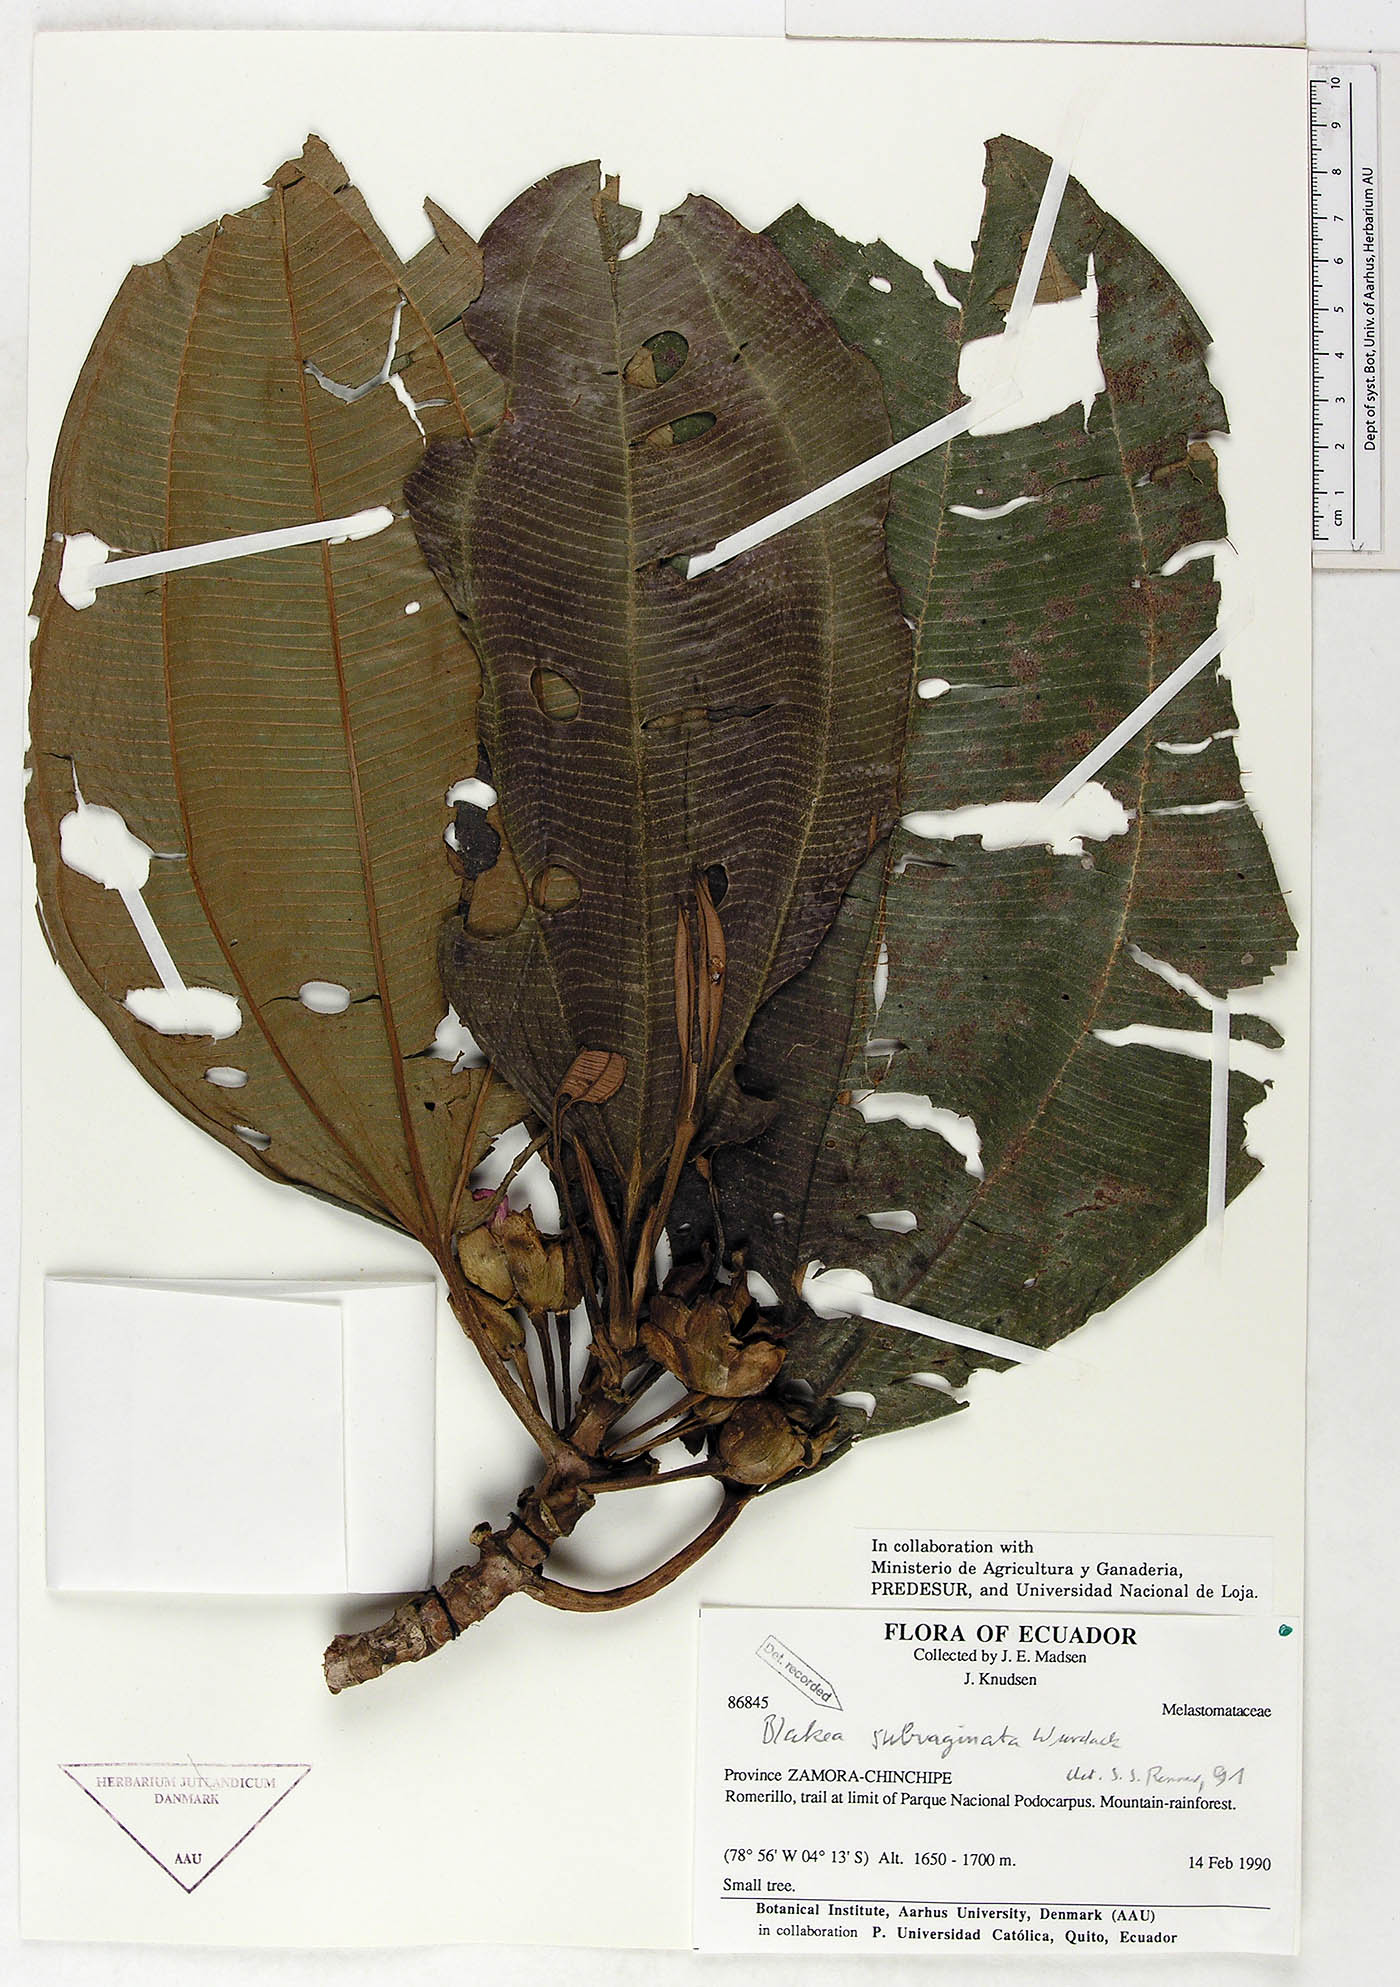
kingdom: Plantae
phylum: Tracheophyta
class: Magnoliopsida
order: Myrtales
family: Melastomataceae
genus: Blakea
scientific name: Blakea subvaginata
